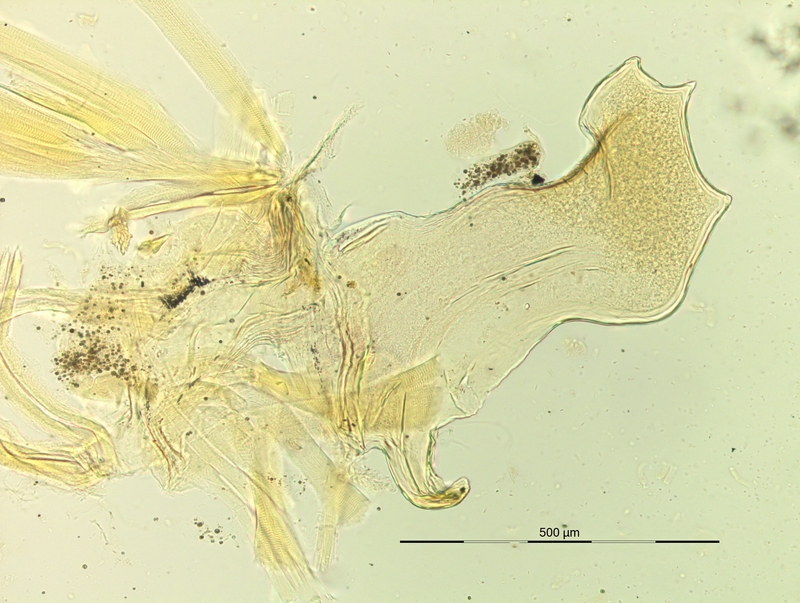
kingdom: Animalia
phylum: Arthropoda
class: Diplopoda
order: Chordeumatida
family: Craspedosomatidae
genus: Rhymogona
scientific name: Rhymogona wehrana
